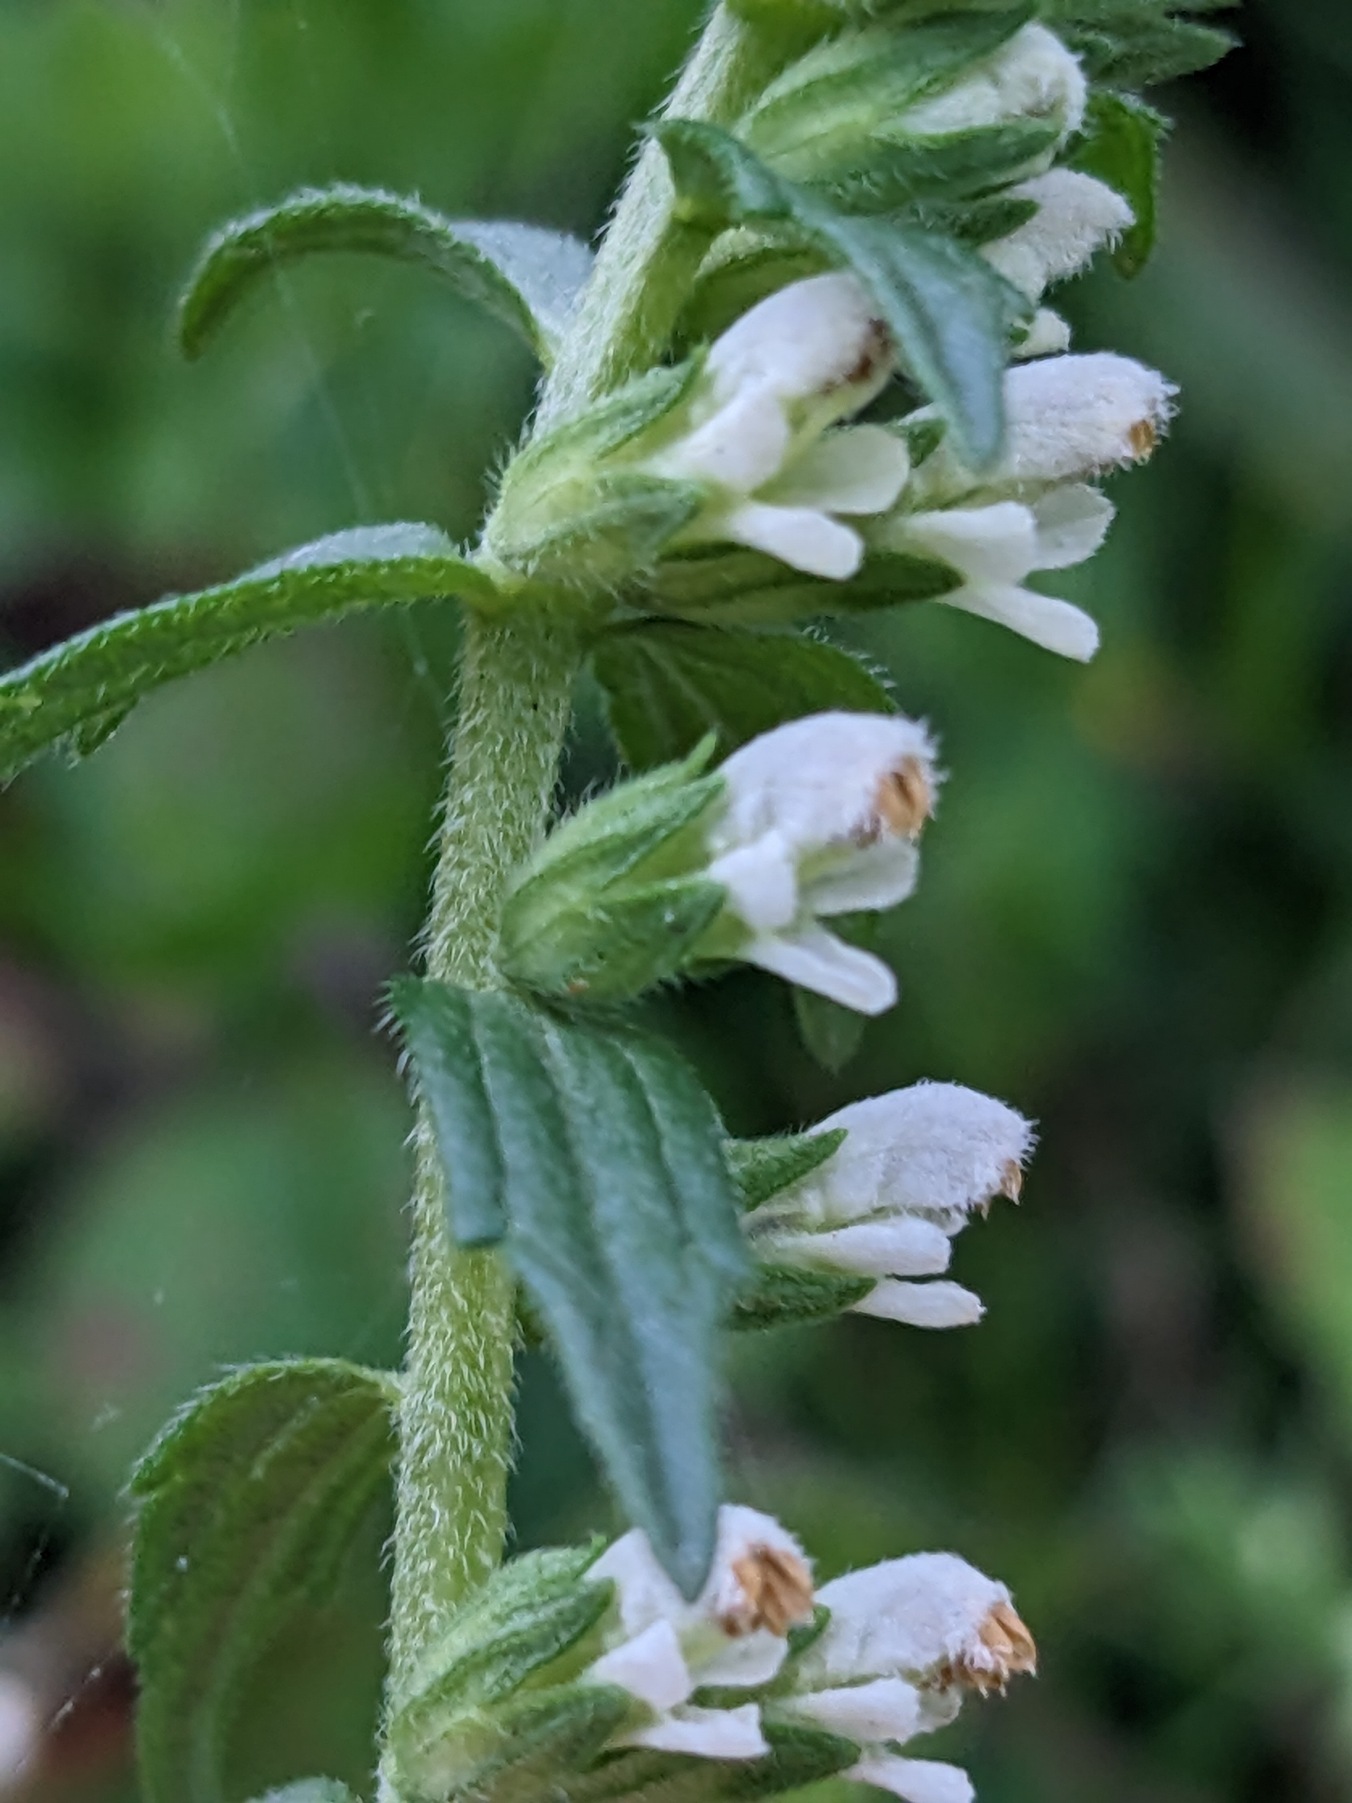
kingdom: Plantae
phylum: Tracheophyta
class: Magnoliopsida
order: Lamiales
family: Orobanchaceae
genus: Odontites
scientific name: Odontites vernus
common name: Mark-rødtop
